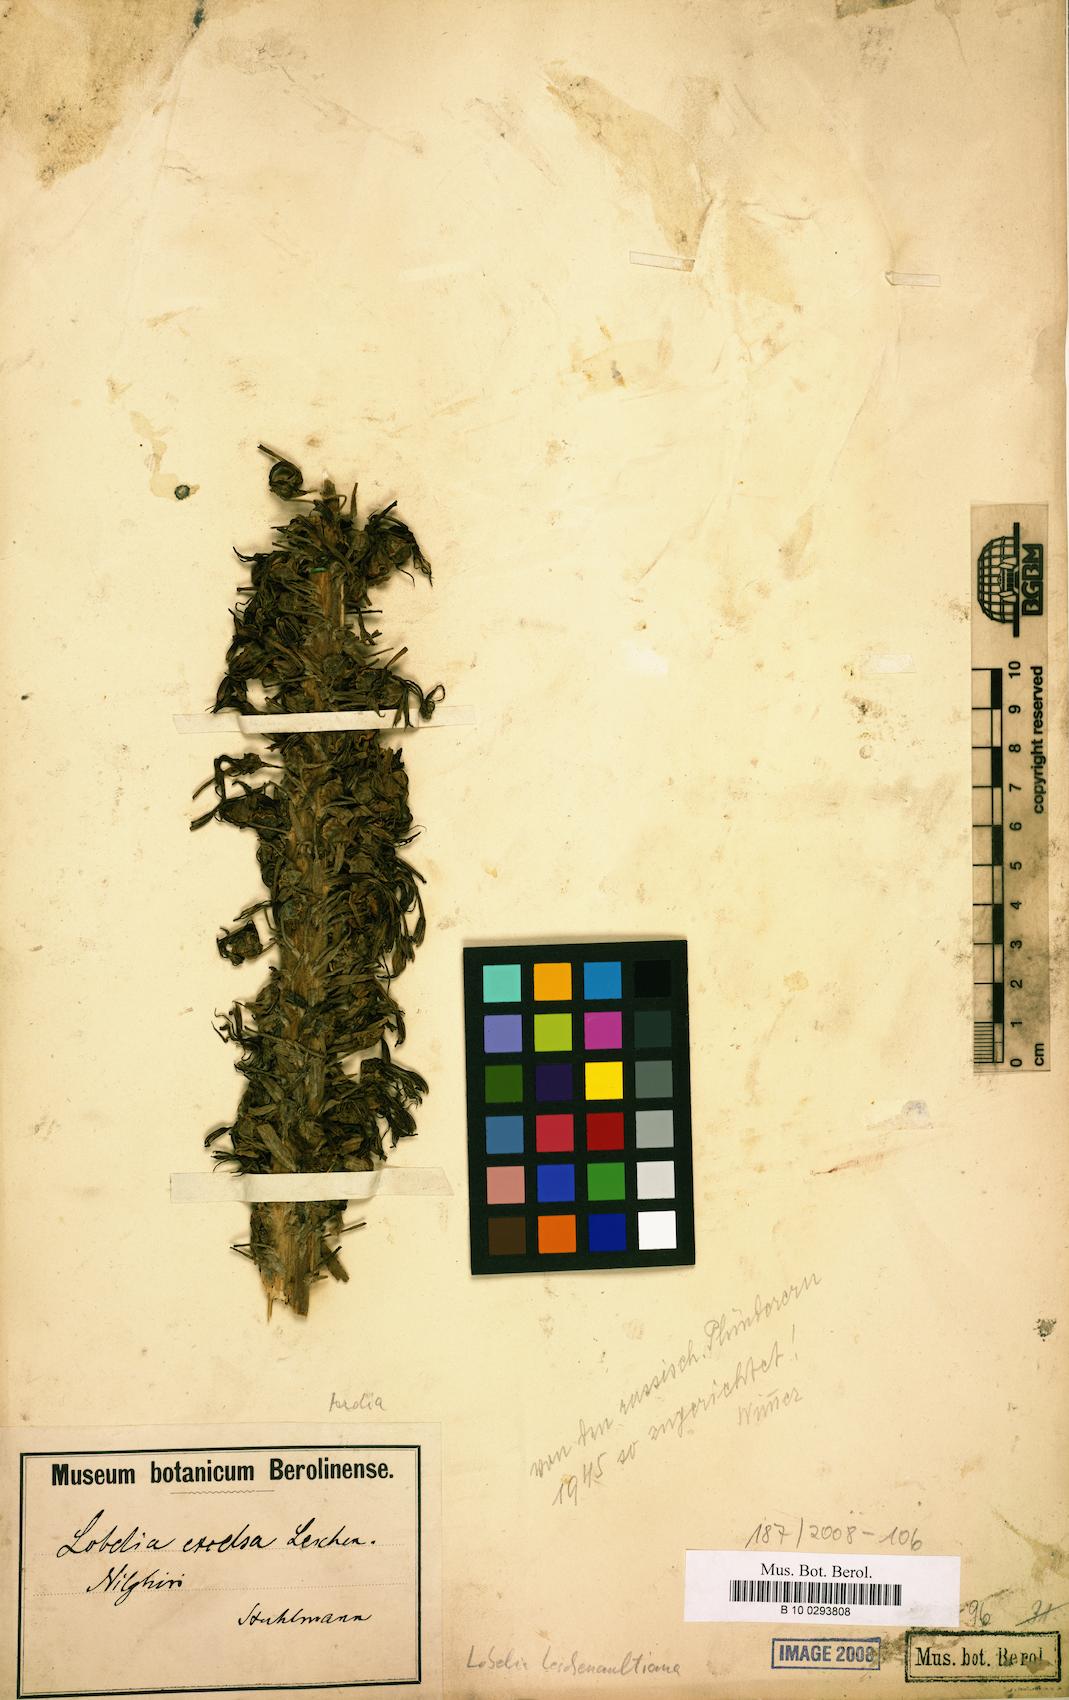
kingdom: Plantae
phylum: Tracheophyta
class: Magnoliopsida
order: Asterales
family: Campanulaceae
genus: Lobelia
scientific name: Lobelia leschenaultiana
